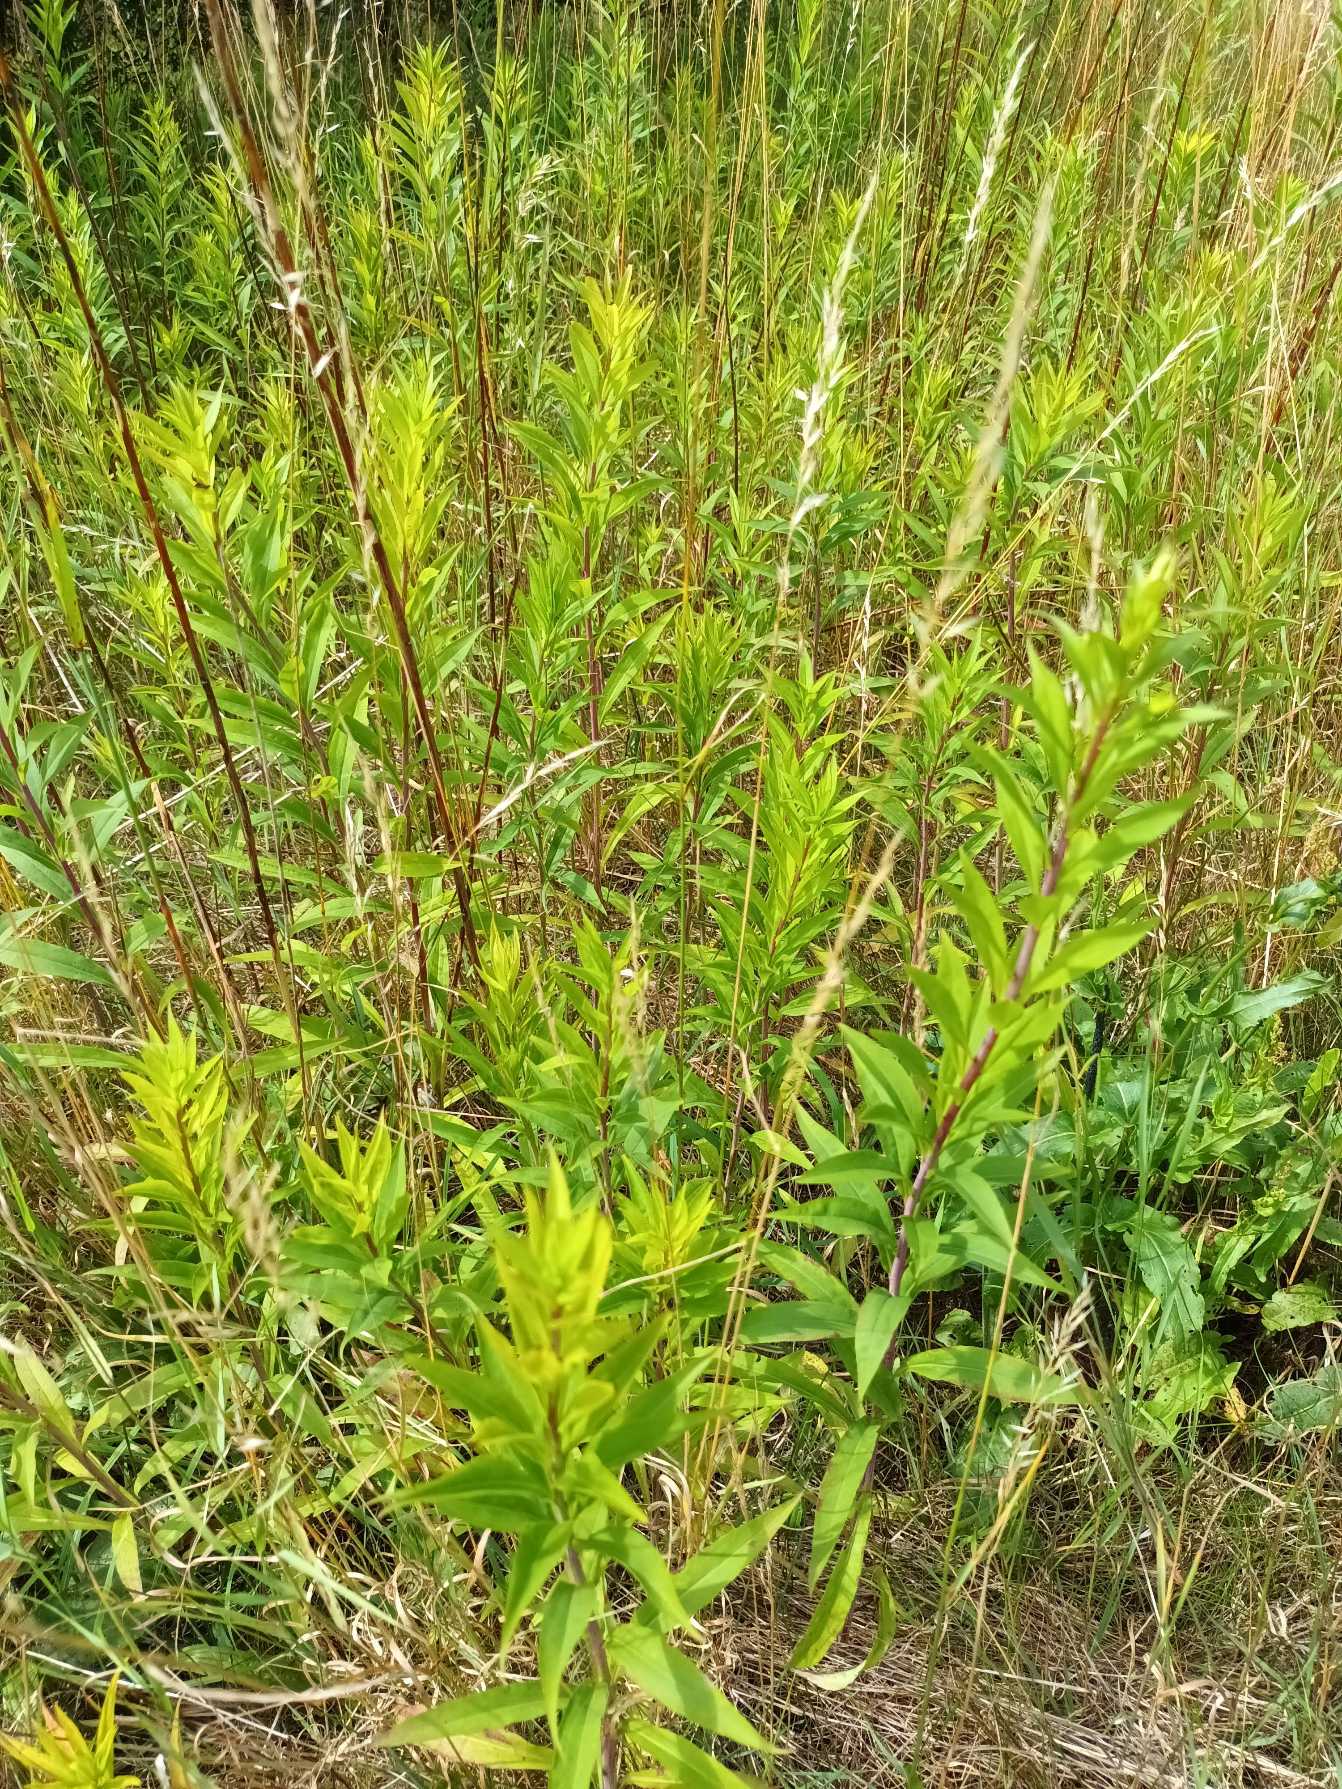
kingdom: Plantae
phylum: Tracheophyta
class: Magnoliopsida
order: Asterales
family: Asteraceae
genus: Solidago
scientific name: Solidago gigantea
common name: Sildig gyldenris
